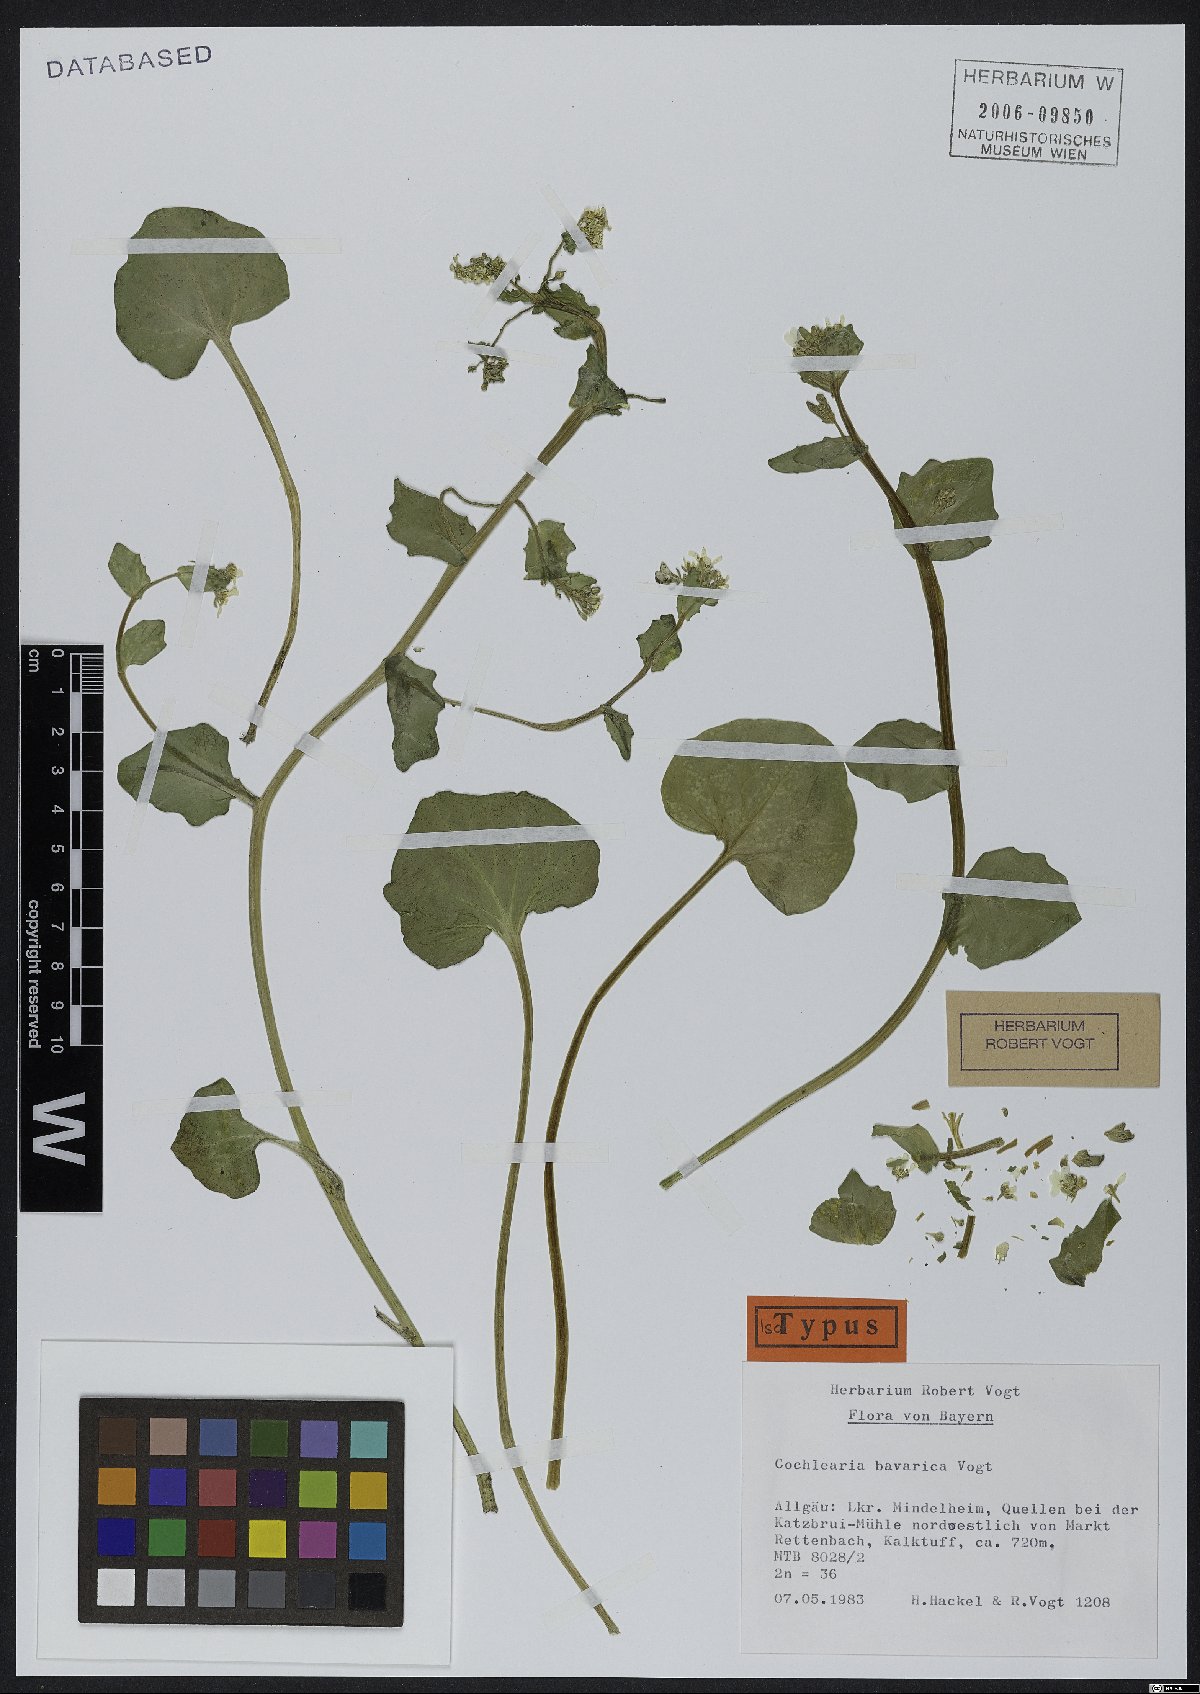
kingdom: Plantae
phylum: Tracheophyta
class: Magnoliopsida
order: Brassicales
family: Brassicaceae
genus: Cochlearia
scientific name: Cochlearia bavarica
